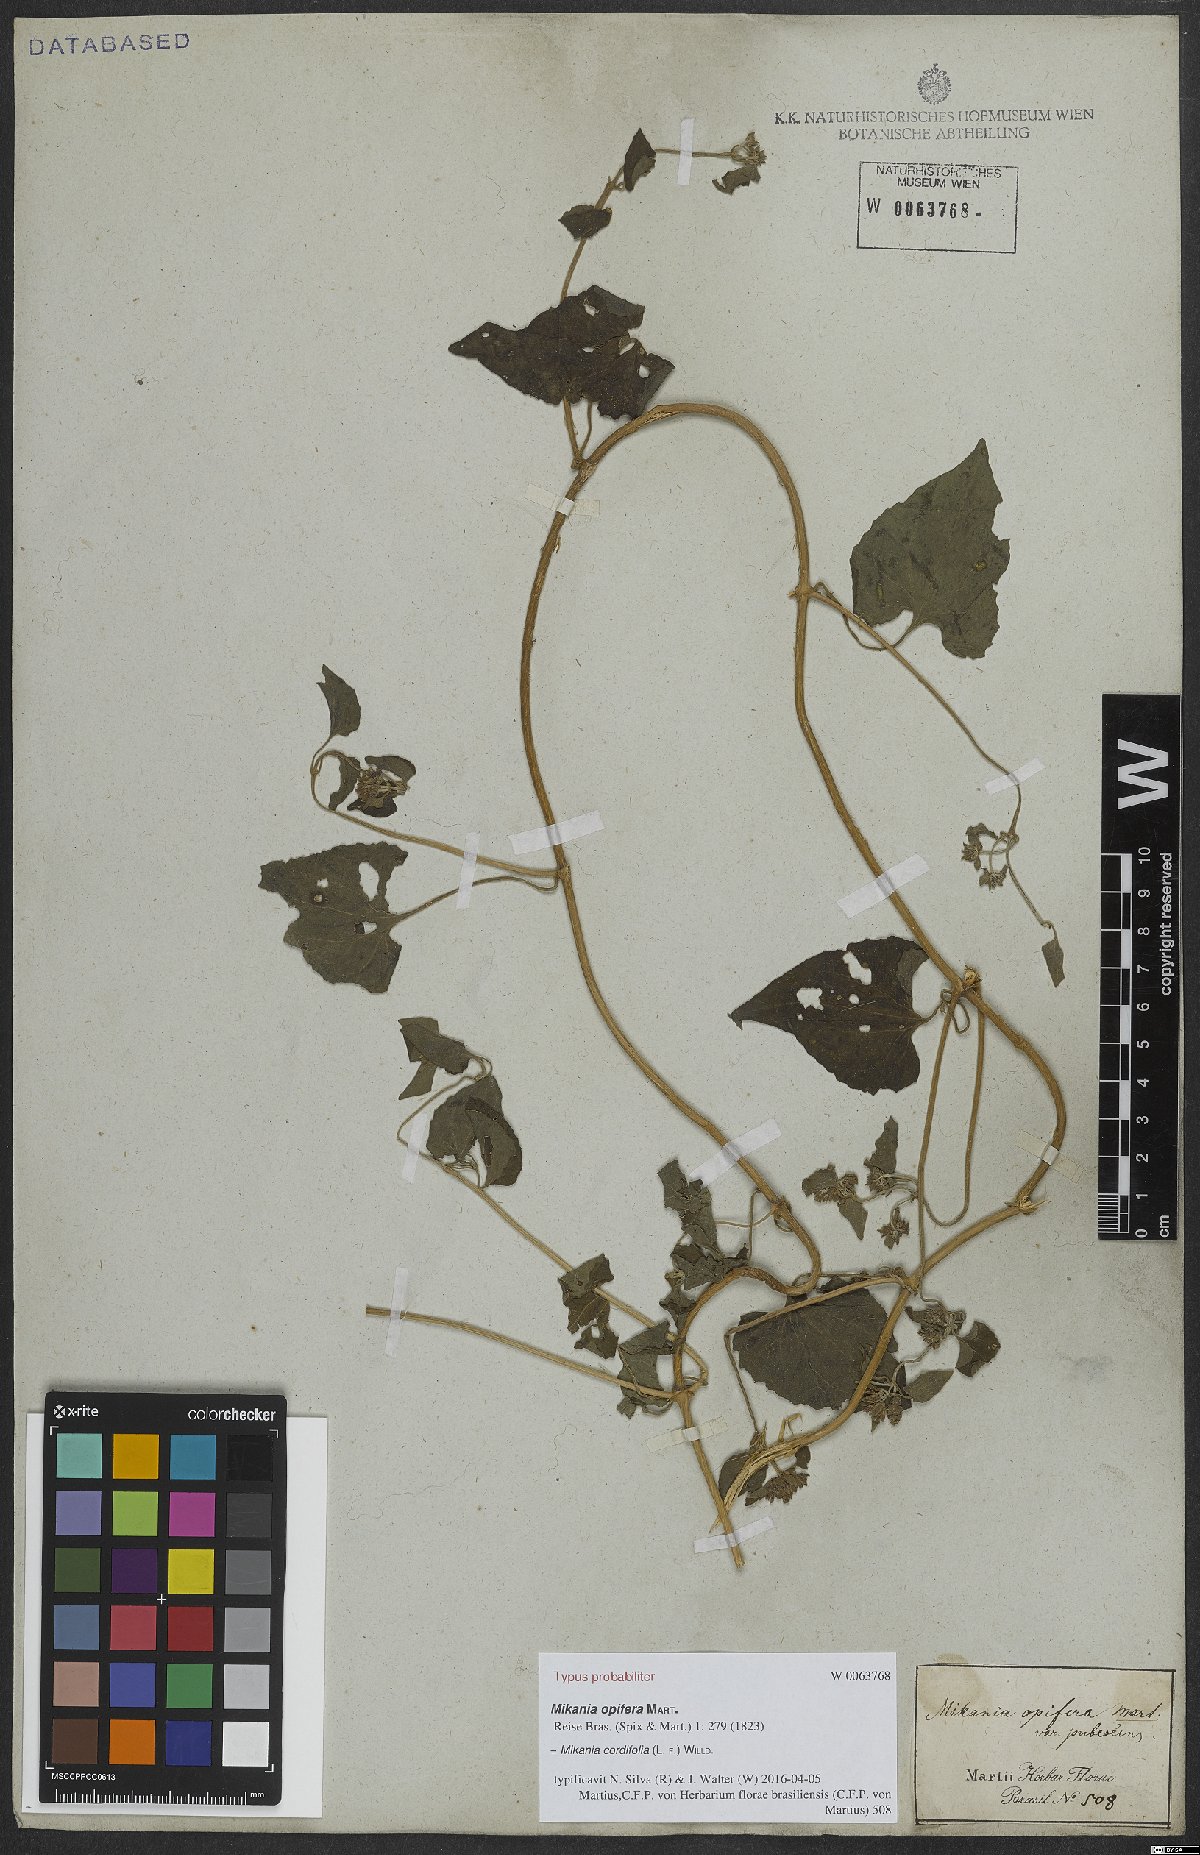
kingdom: Plantae
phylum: Tracheophyta
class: Magnoliopsida
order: Asterales
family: Asteraceae
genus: Mikania
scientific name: Mikania cordifolia
